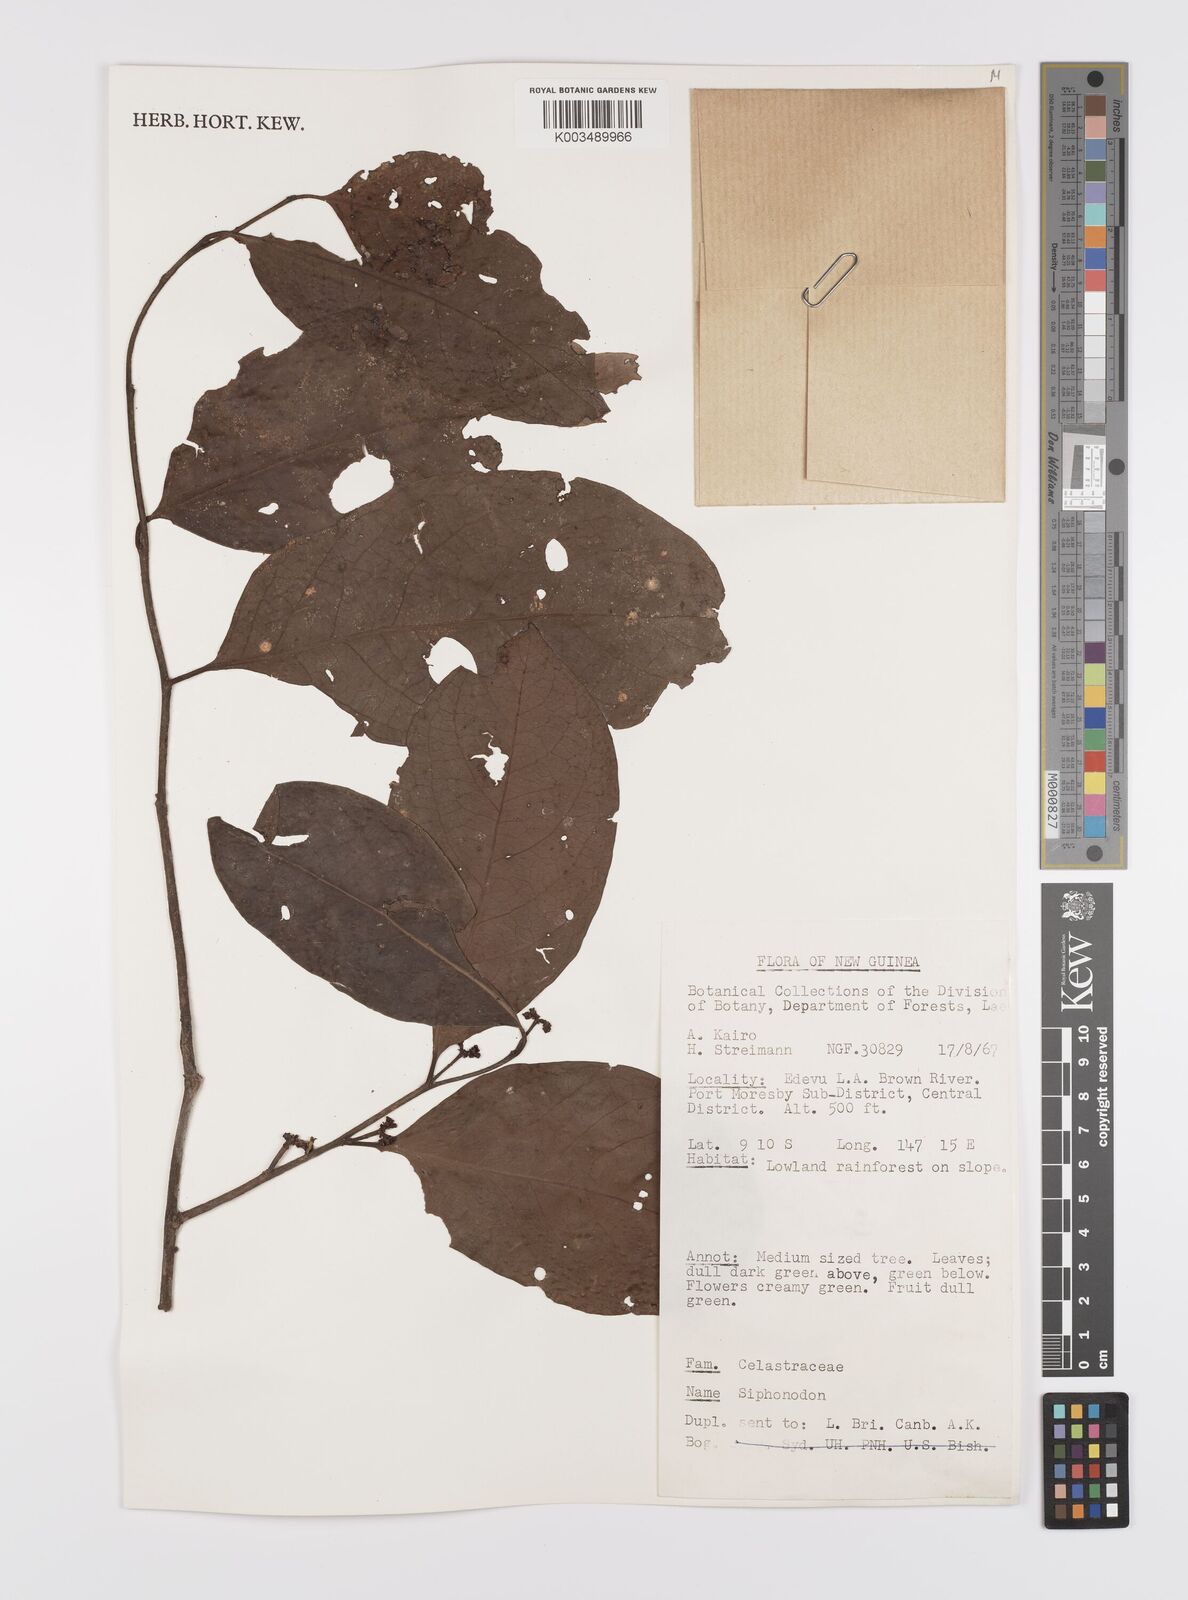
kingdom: Plantae
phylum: Tracheophyta
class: Magnoliopsida
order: Celastrales
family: Celastraceae
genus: Siphonodon
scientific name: Siphonodon
